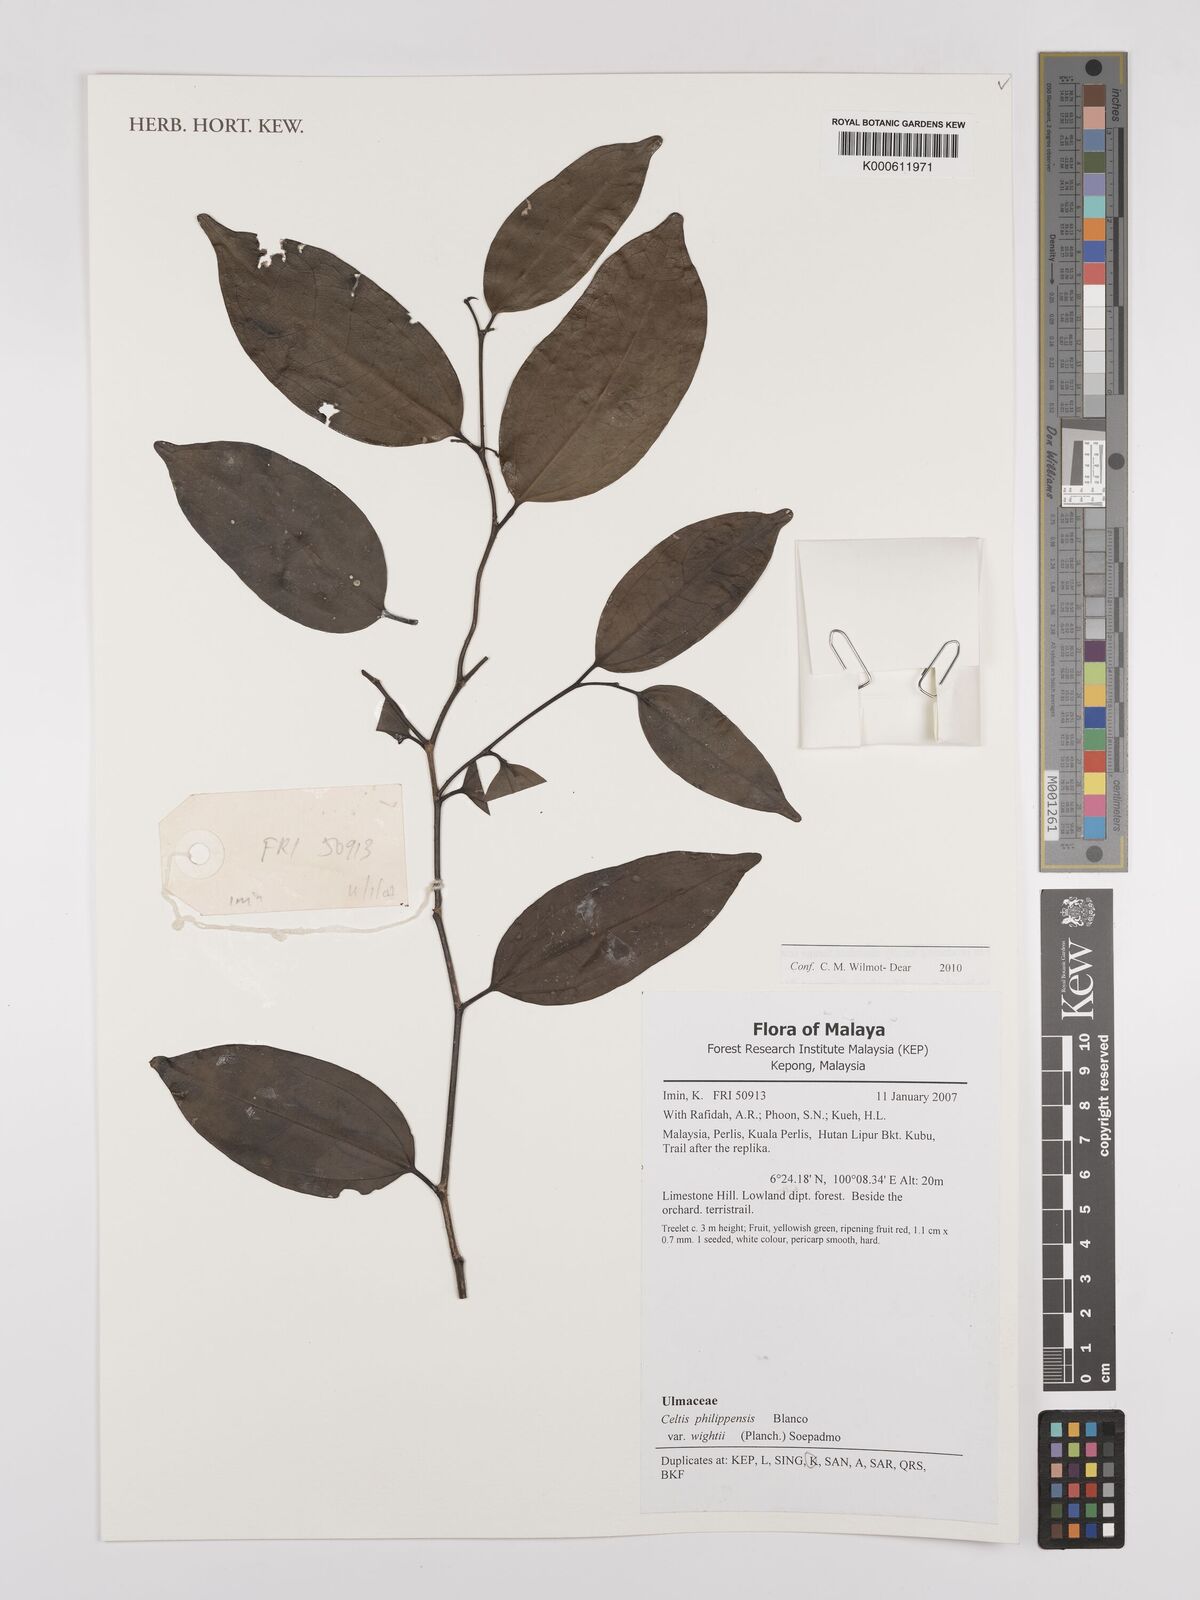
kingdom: Plantae
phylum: Tracheophyta
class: Magnoliopsida
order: Rosales
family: Cannabaceae
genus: Celtis
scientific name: Celtis philippensis
